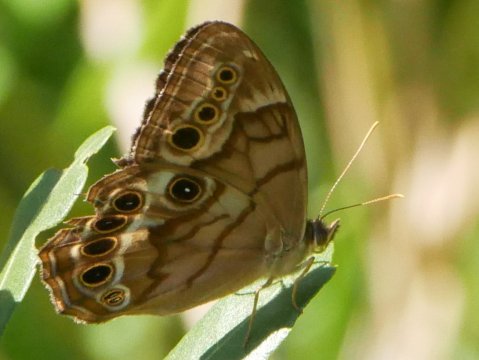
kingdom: Animalia
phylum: Arthropoda
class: Insecta
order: Lepidoptera
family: Nymphalidae
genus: Enodia
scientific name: Enodia portlandia
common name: Southern Pearly Eye
